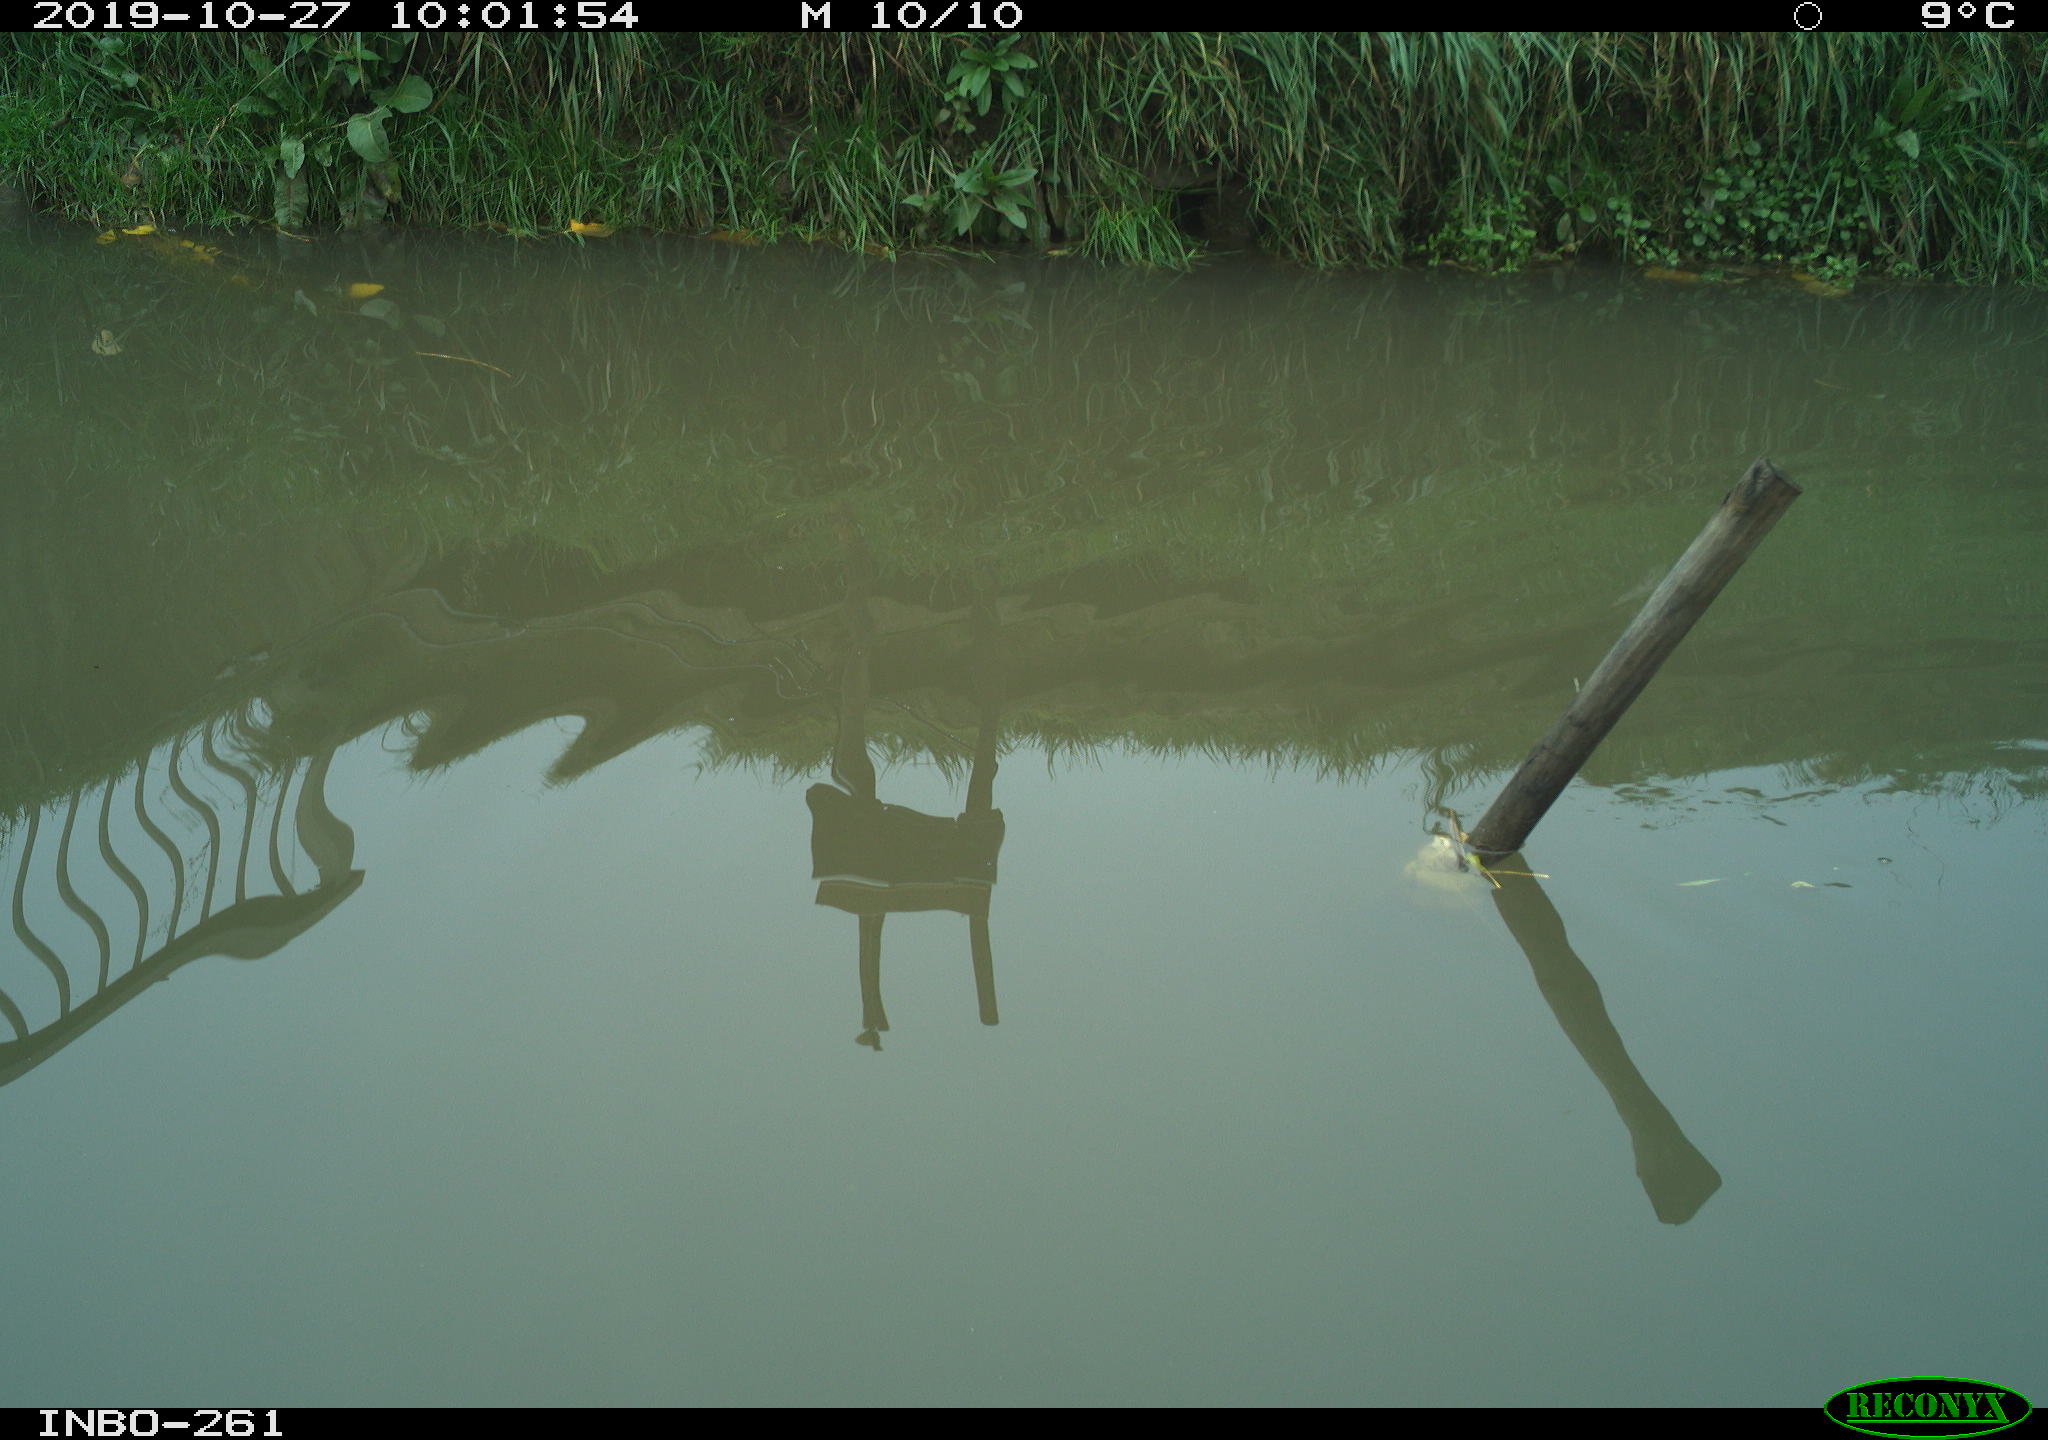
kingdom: Animalia
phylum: Chordata
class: Aves
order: Gruiformes
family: Rallidae
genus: Gallinula
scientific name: Gallinula chloropus
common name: Common moorhen
